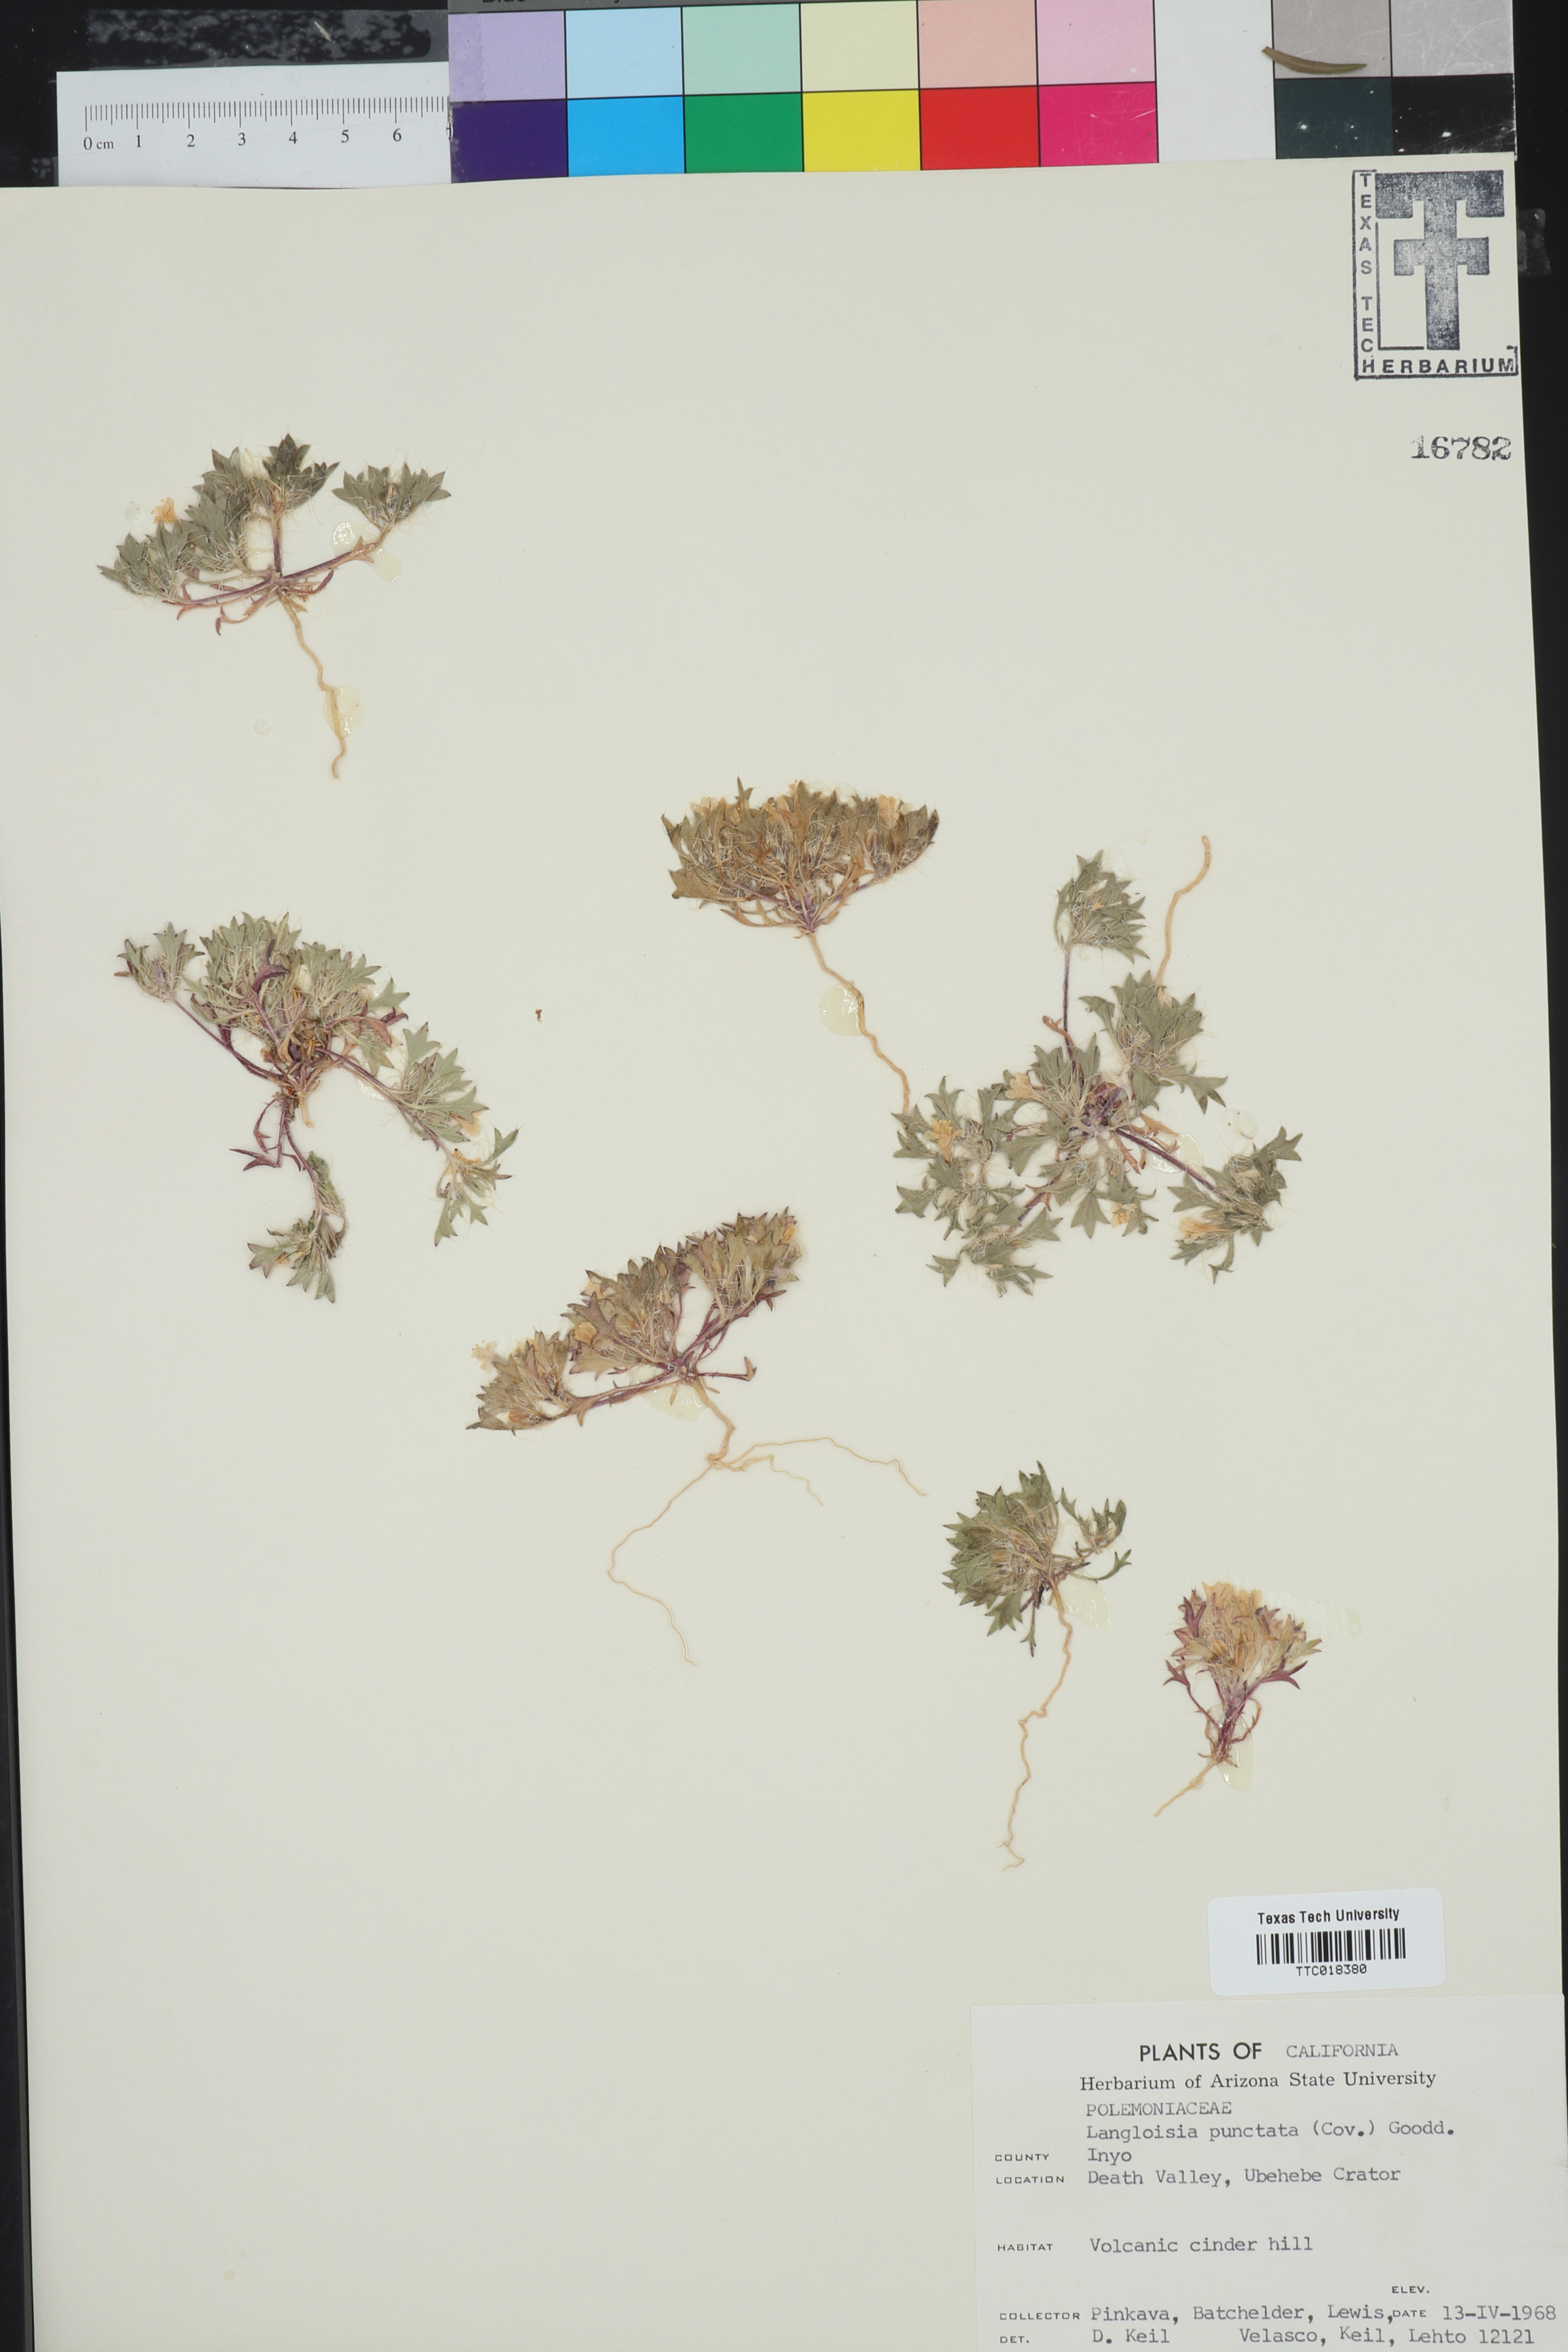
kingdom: Plantae
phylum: Tracheophyta
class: Magnoliopsida
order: Ericales
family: Polemoniaceae
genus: Langloisia
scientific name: Langloisia setosissima
